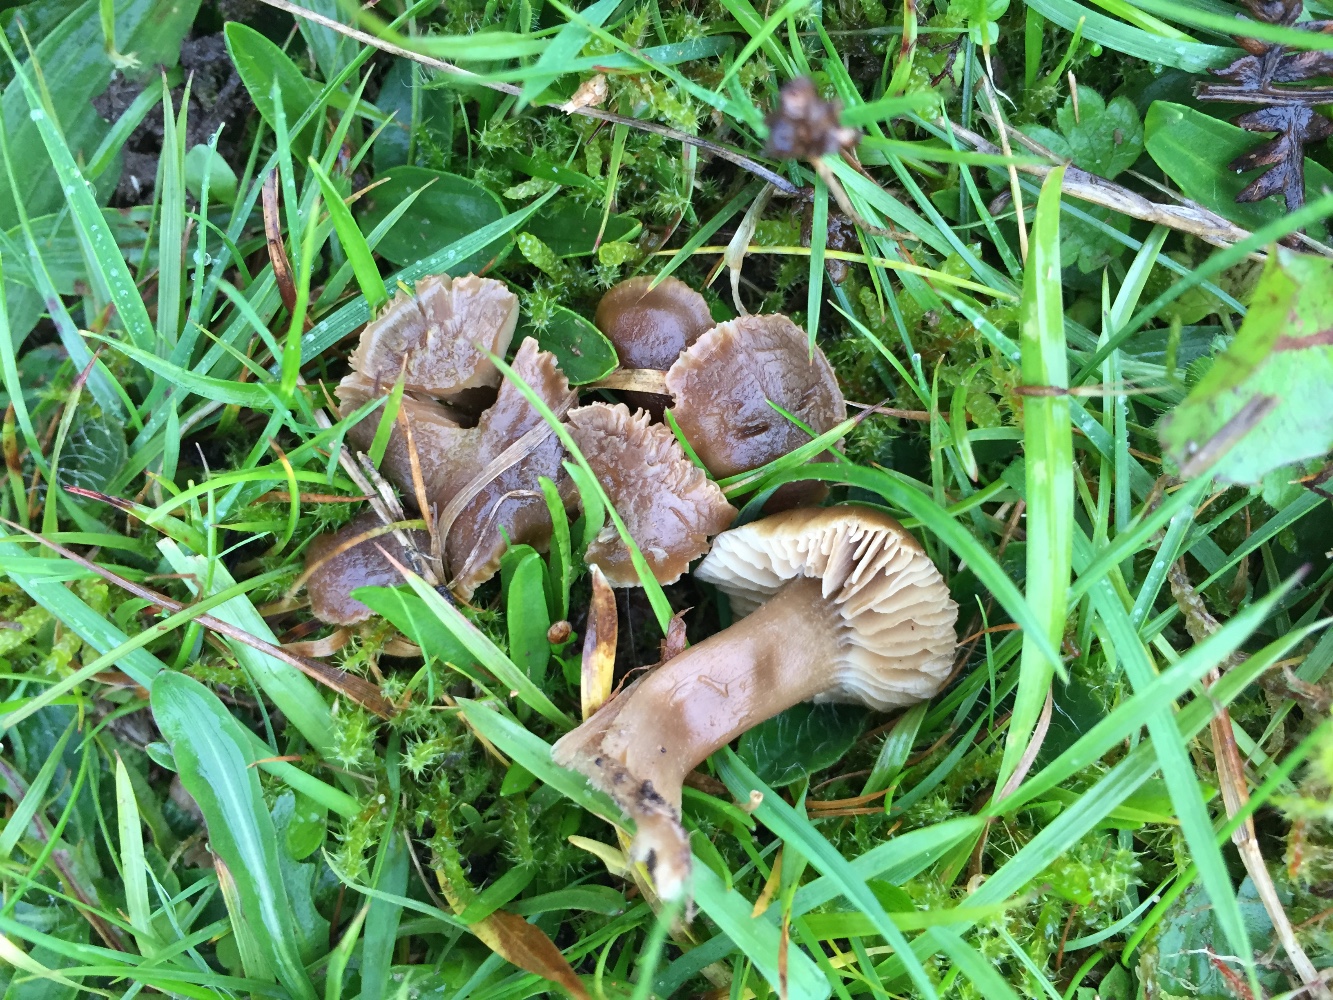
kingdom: Fungi
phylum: Basidiomycota
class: Agaricomycetes
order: Agaricales
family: Clavariaceae
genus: Camarophyllopsis
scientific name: Camarophyllopsis schulzeri
